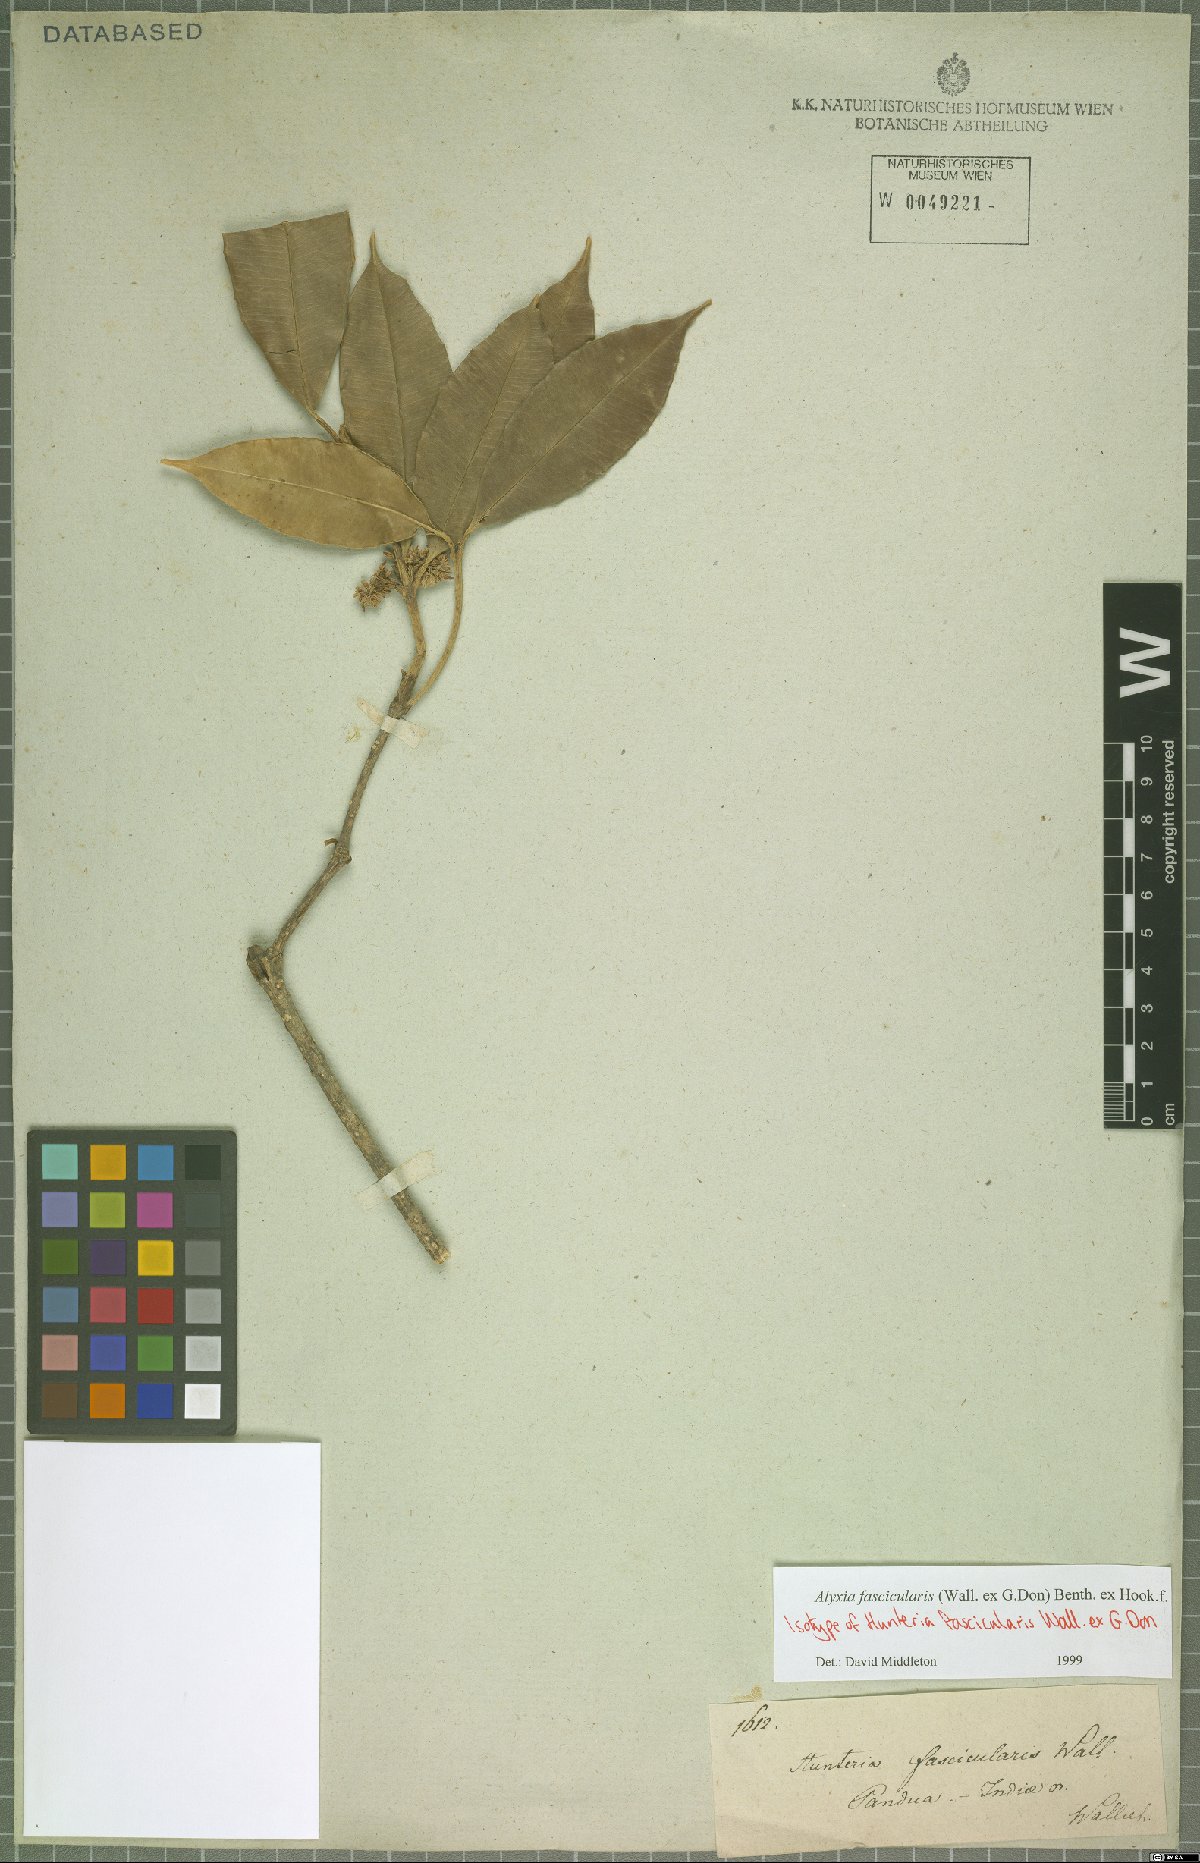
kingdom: Plantae
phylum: Tracheophyta
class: Magnoliopsida
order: Gentianales
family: Apocynaceae
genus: Alyxia
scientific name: Alyxia fascicularis
